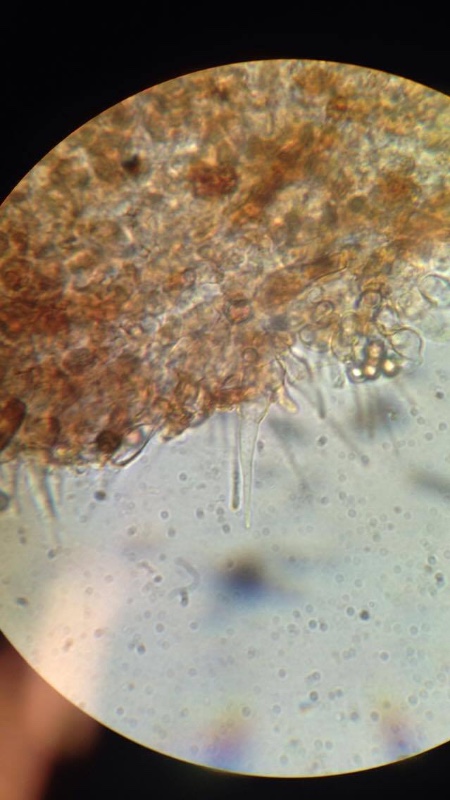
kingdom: Fungi
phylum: Basidiomycota
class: Agaricomycetes
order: Agaricales
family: Hymenogastraceae
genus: Naucoria
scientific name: Naucoria scolecina
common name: mørk elle-knaphat
